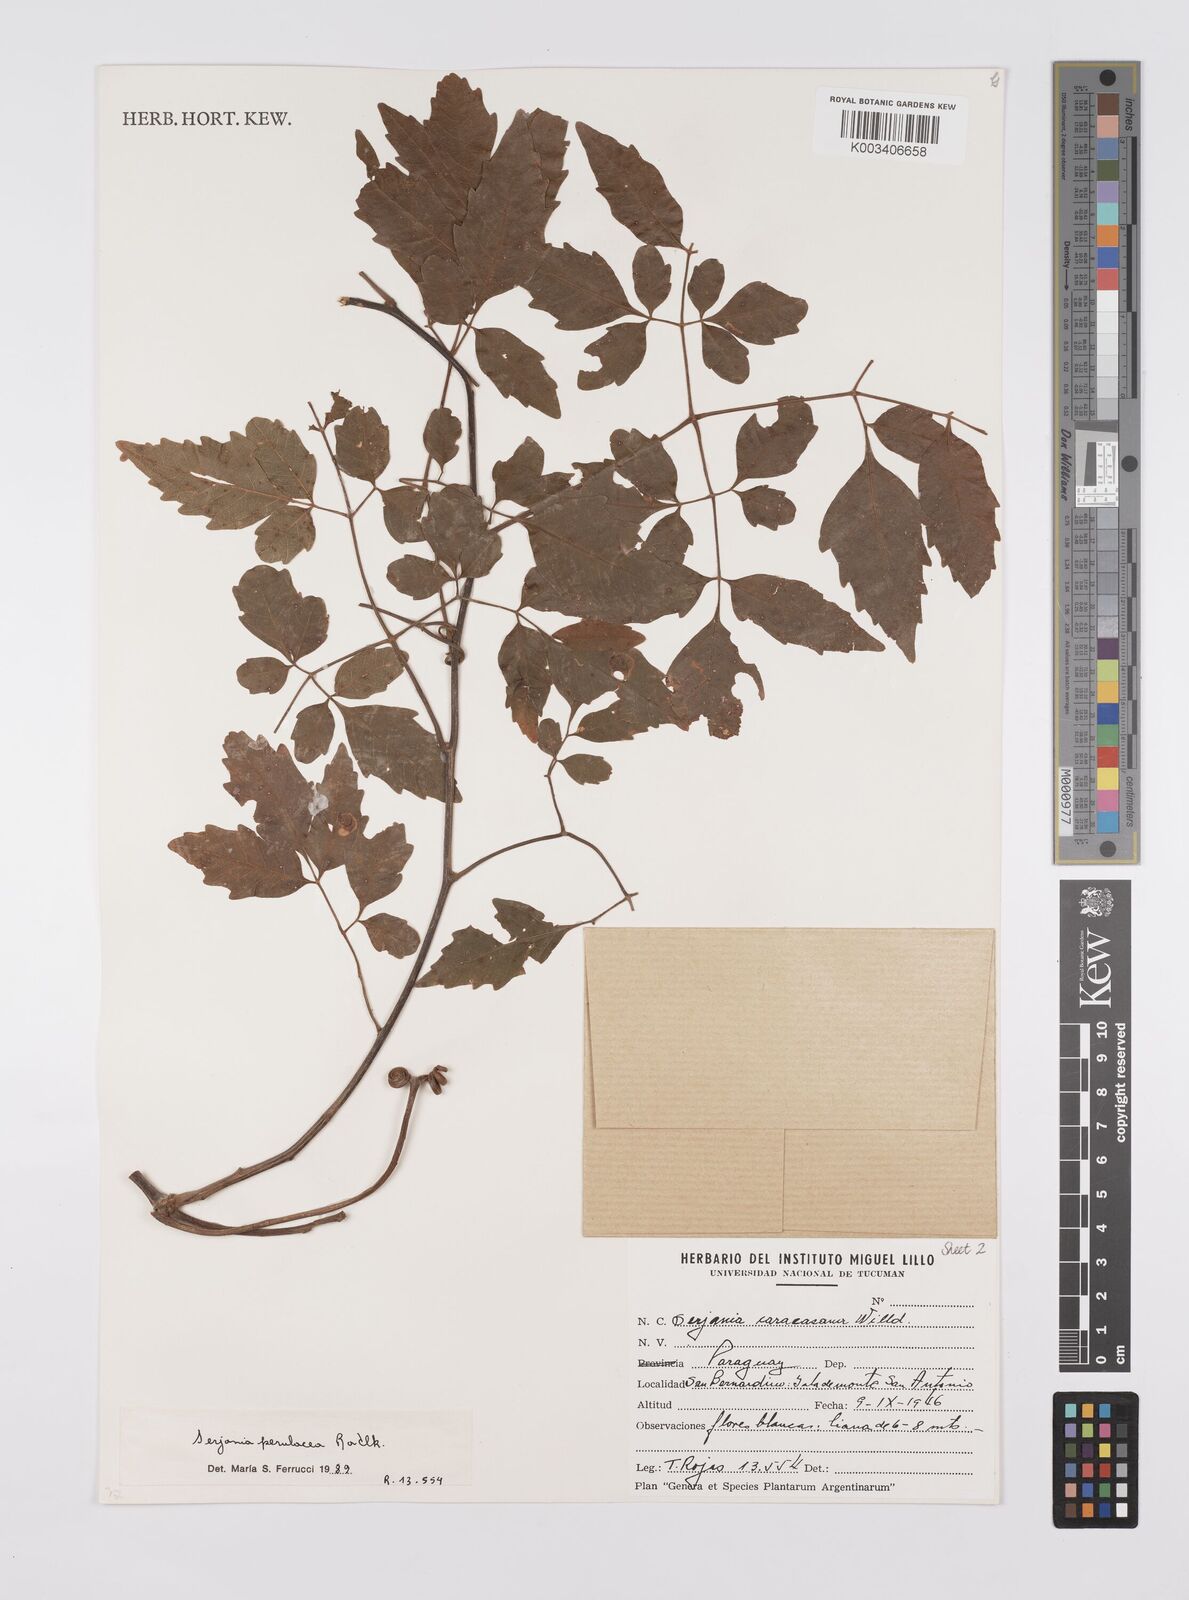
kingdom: Plantae
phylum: Tracheophyta
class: Magnoliopsida
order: Sapindales
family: Sapindaceae
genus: Serjania
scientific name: Serjania perulacea
